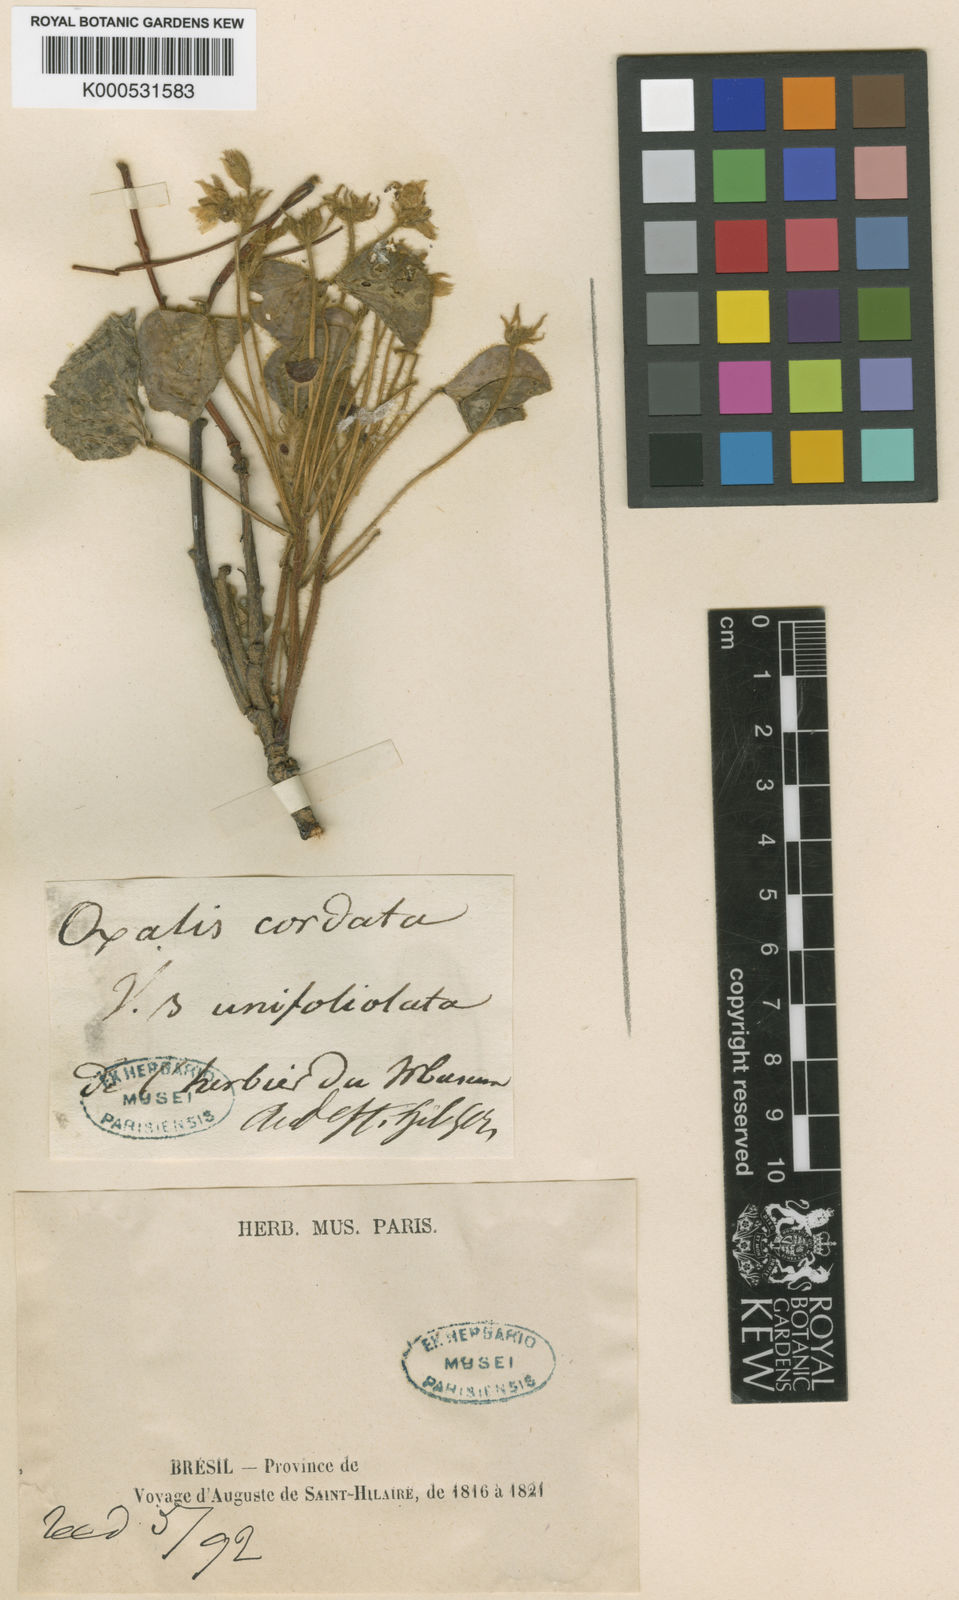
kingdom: Plantae
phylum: Tracheophyta
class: Magnoliopsida
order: Oxalidales
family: Oxalidaceae
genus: Oxalis
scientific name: Oxalis cordata
